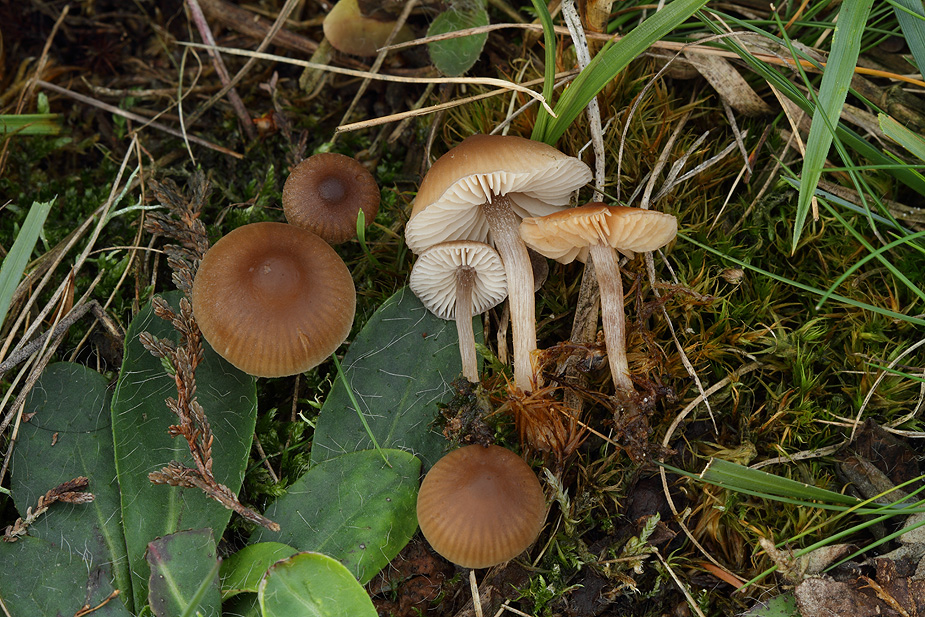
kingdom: Fungi
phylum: Basidiomycota
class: Agaricomycetes
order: Agaricales
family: Lyophyllaceae
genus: Sagaranella
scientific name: Sagaranella tylicolor
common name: kvælstof-gråblad
